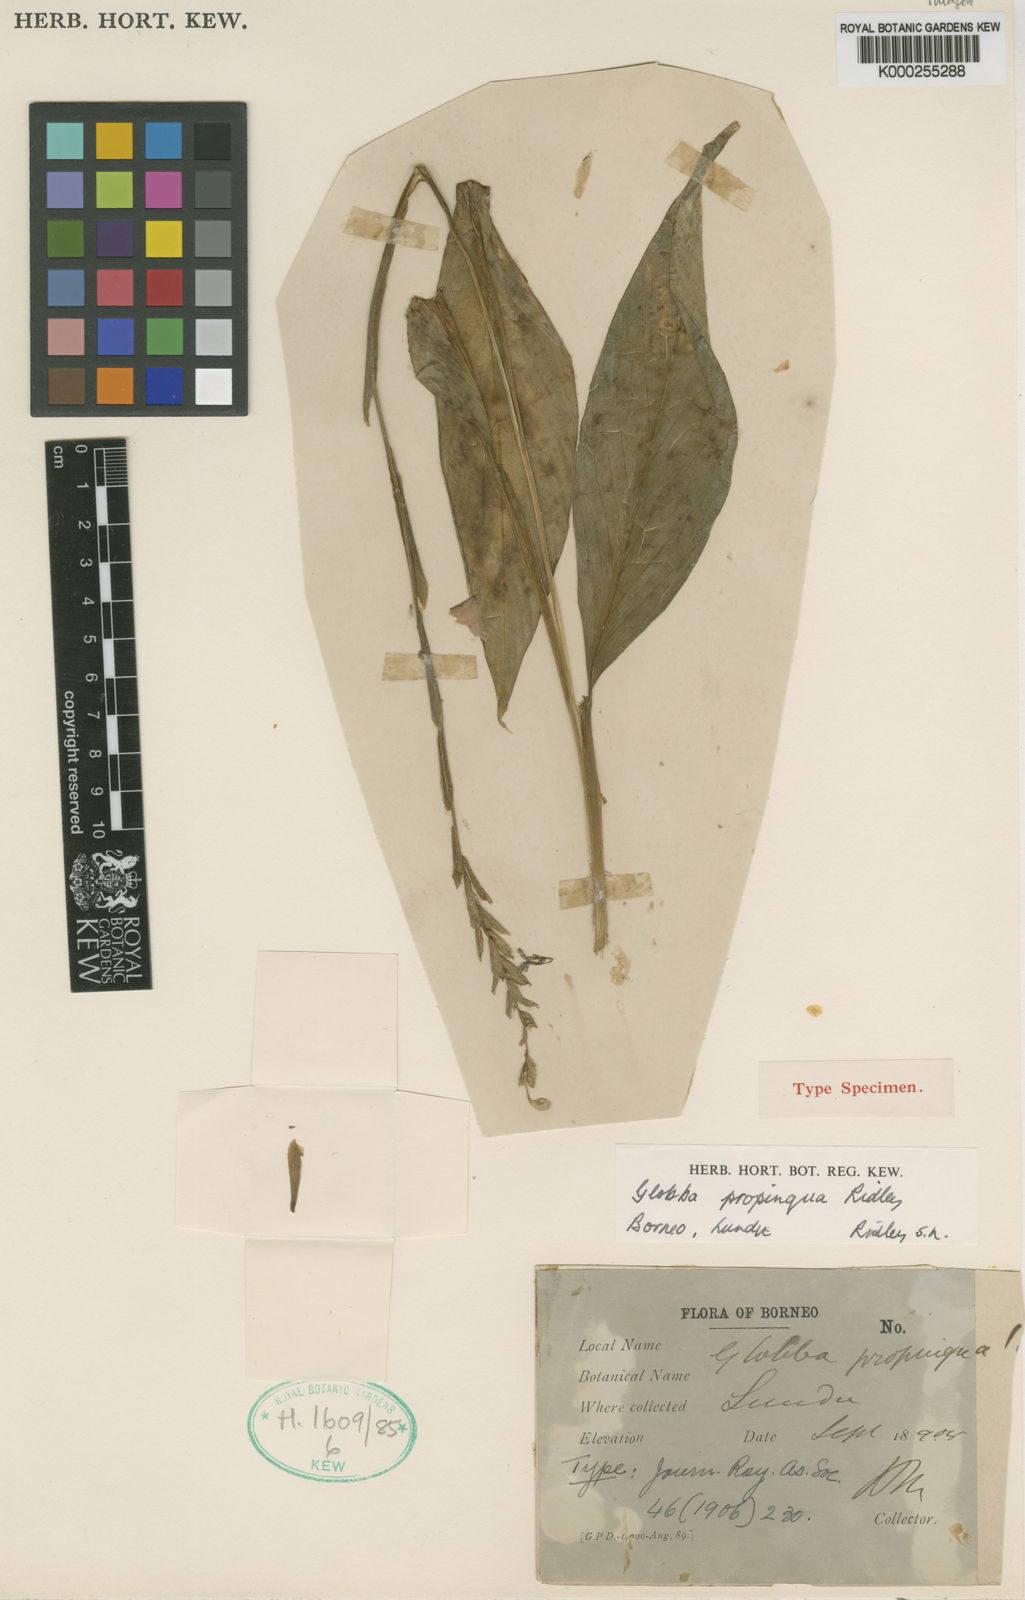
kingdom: Plantae
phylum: Tracheophyta
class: Liliopsida
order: Zingiberales
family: Zingiberaceae
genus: Globba
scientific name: Globba propinqua
